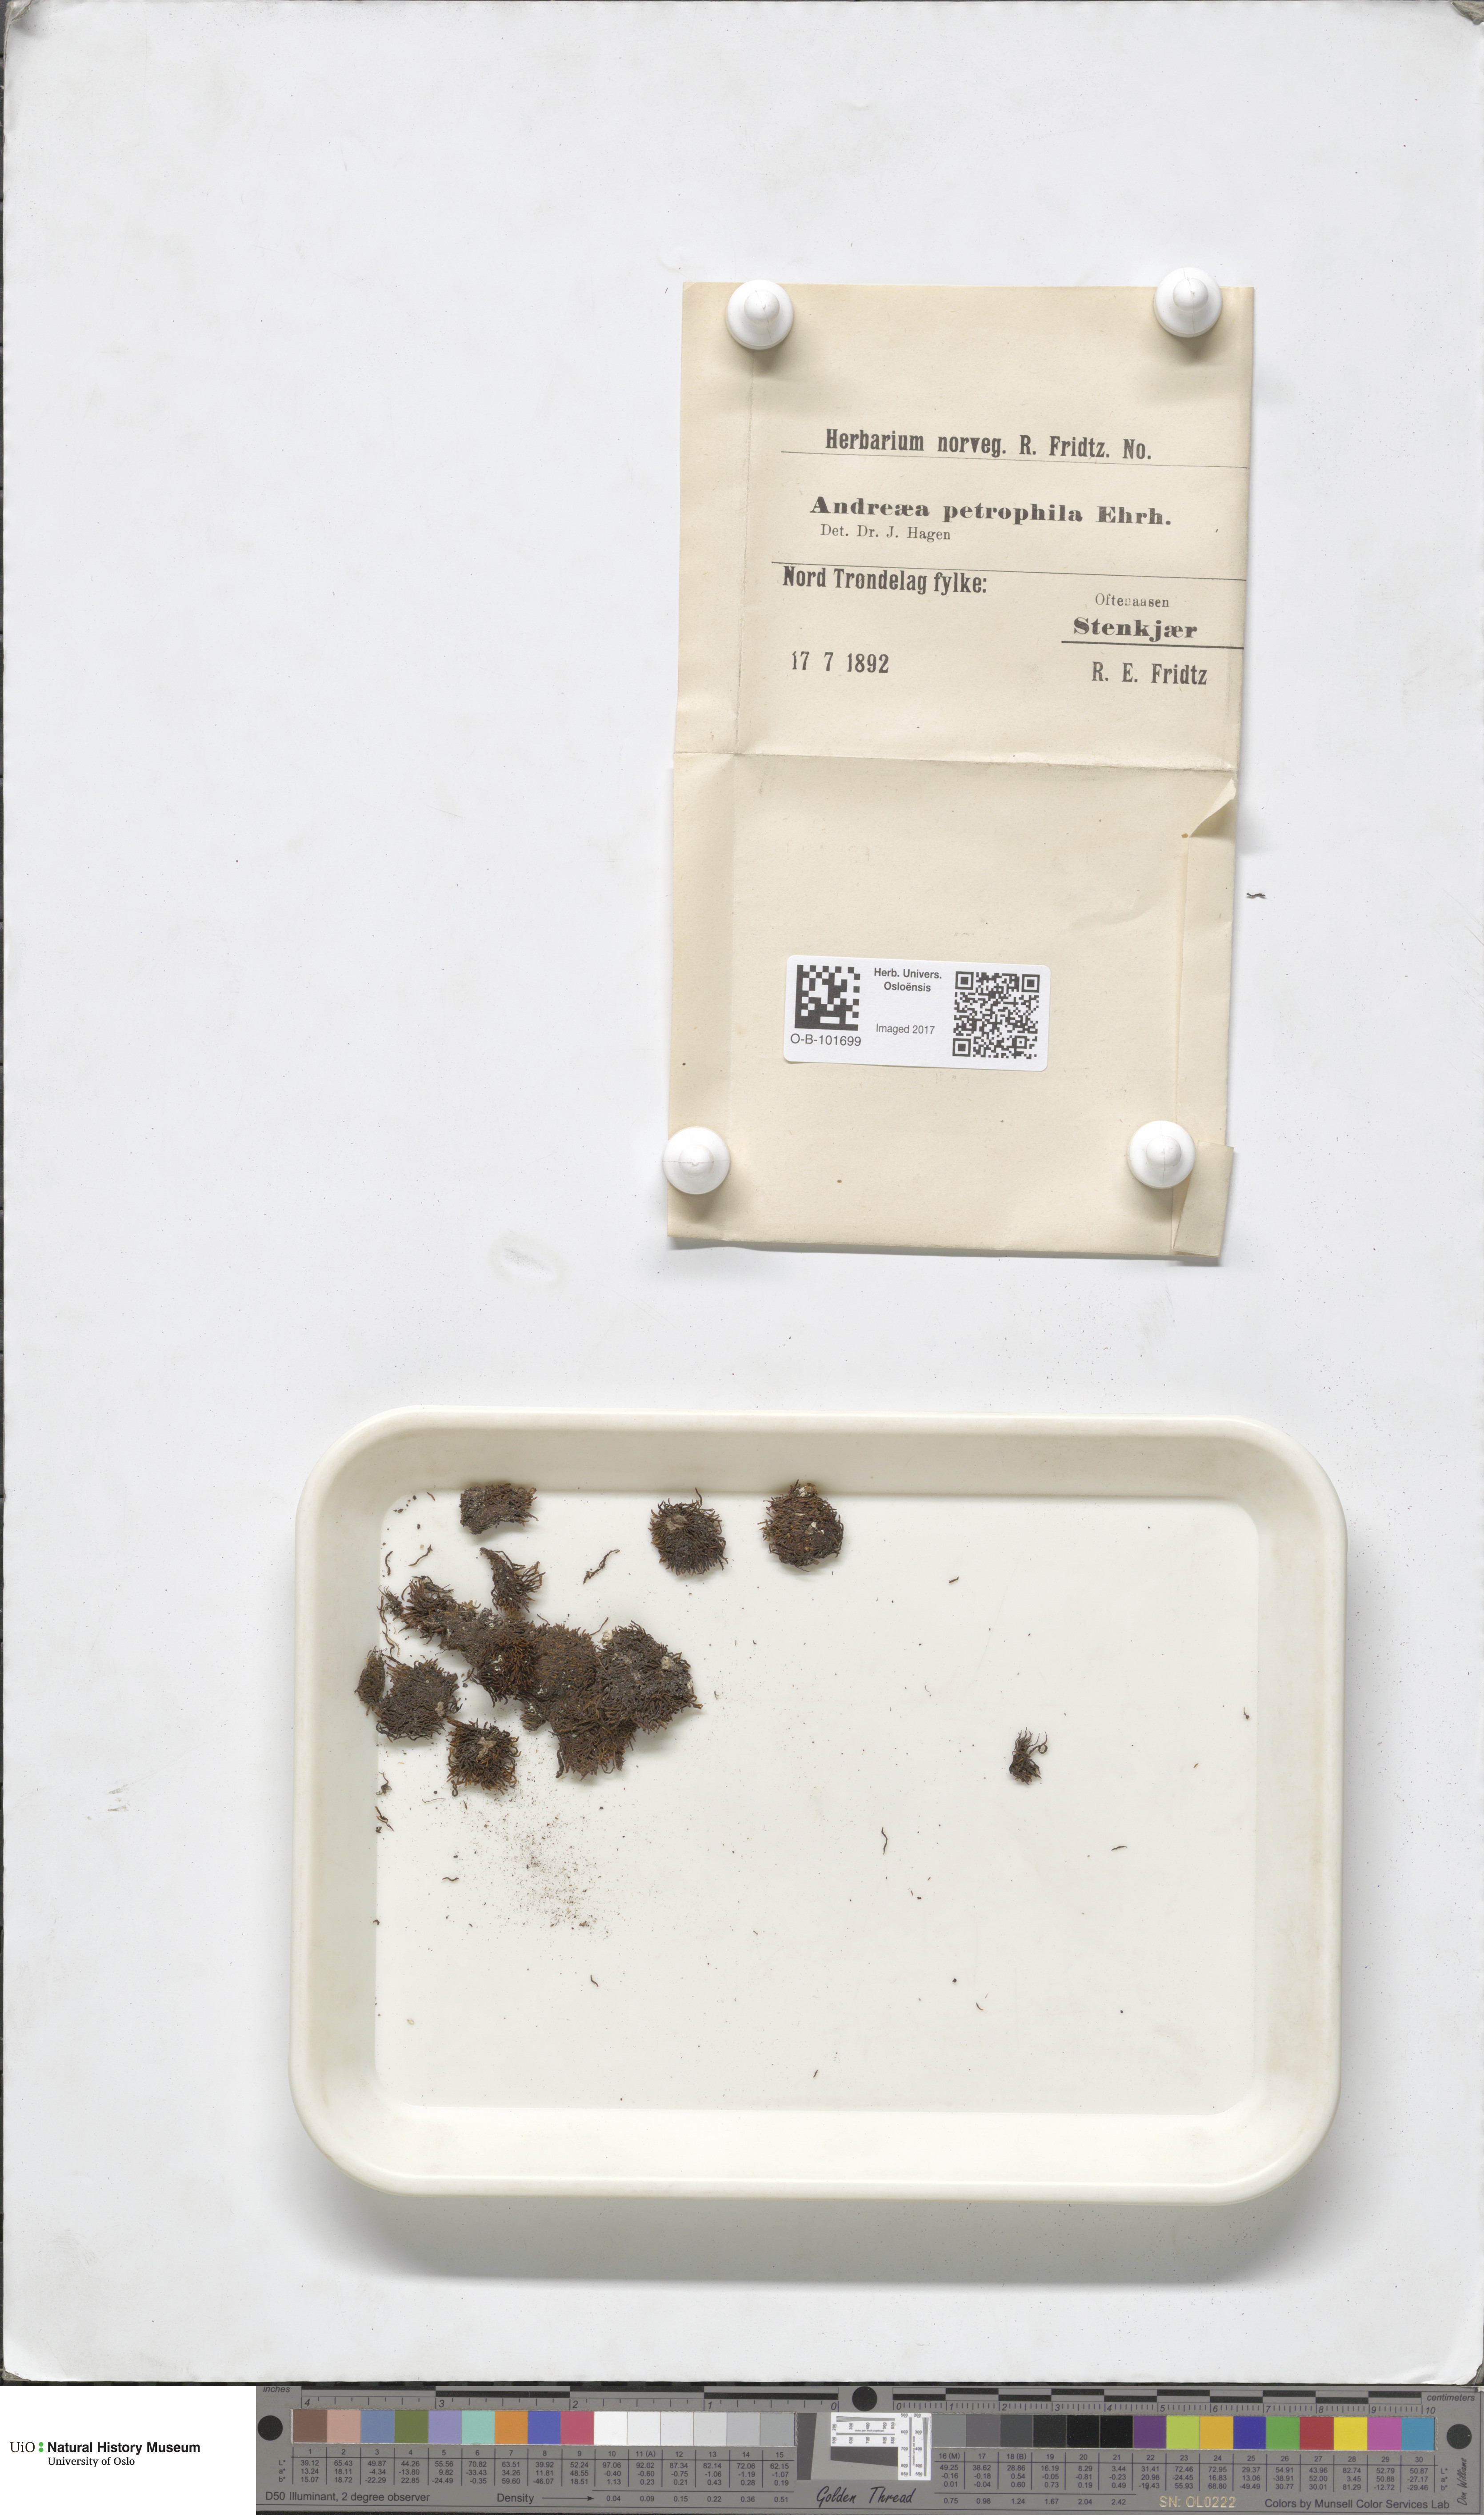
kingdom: Plantae
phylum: Bryophyta
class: Andreaeopsida
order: Andreaeales
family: Andreaeaceae
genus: Andreaea
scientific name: Andreaea rupestris
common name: Black rock moss
